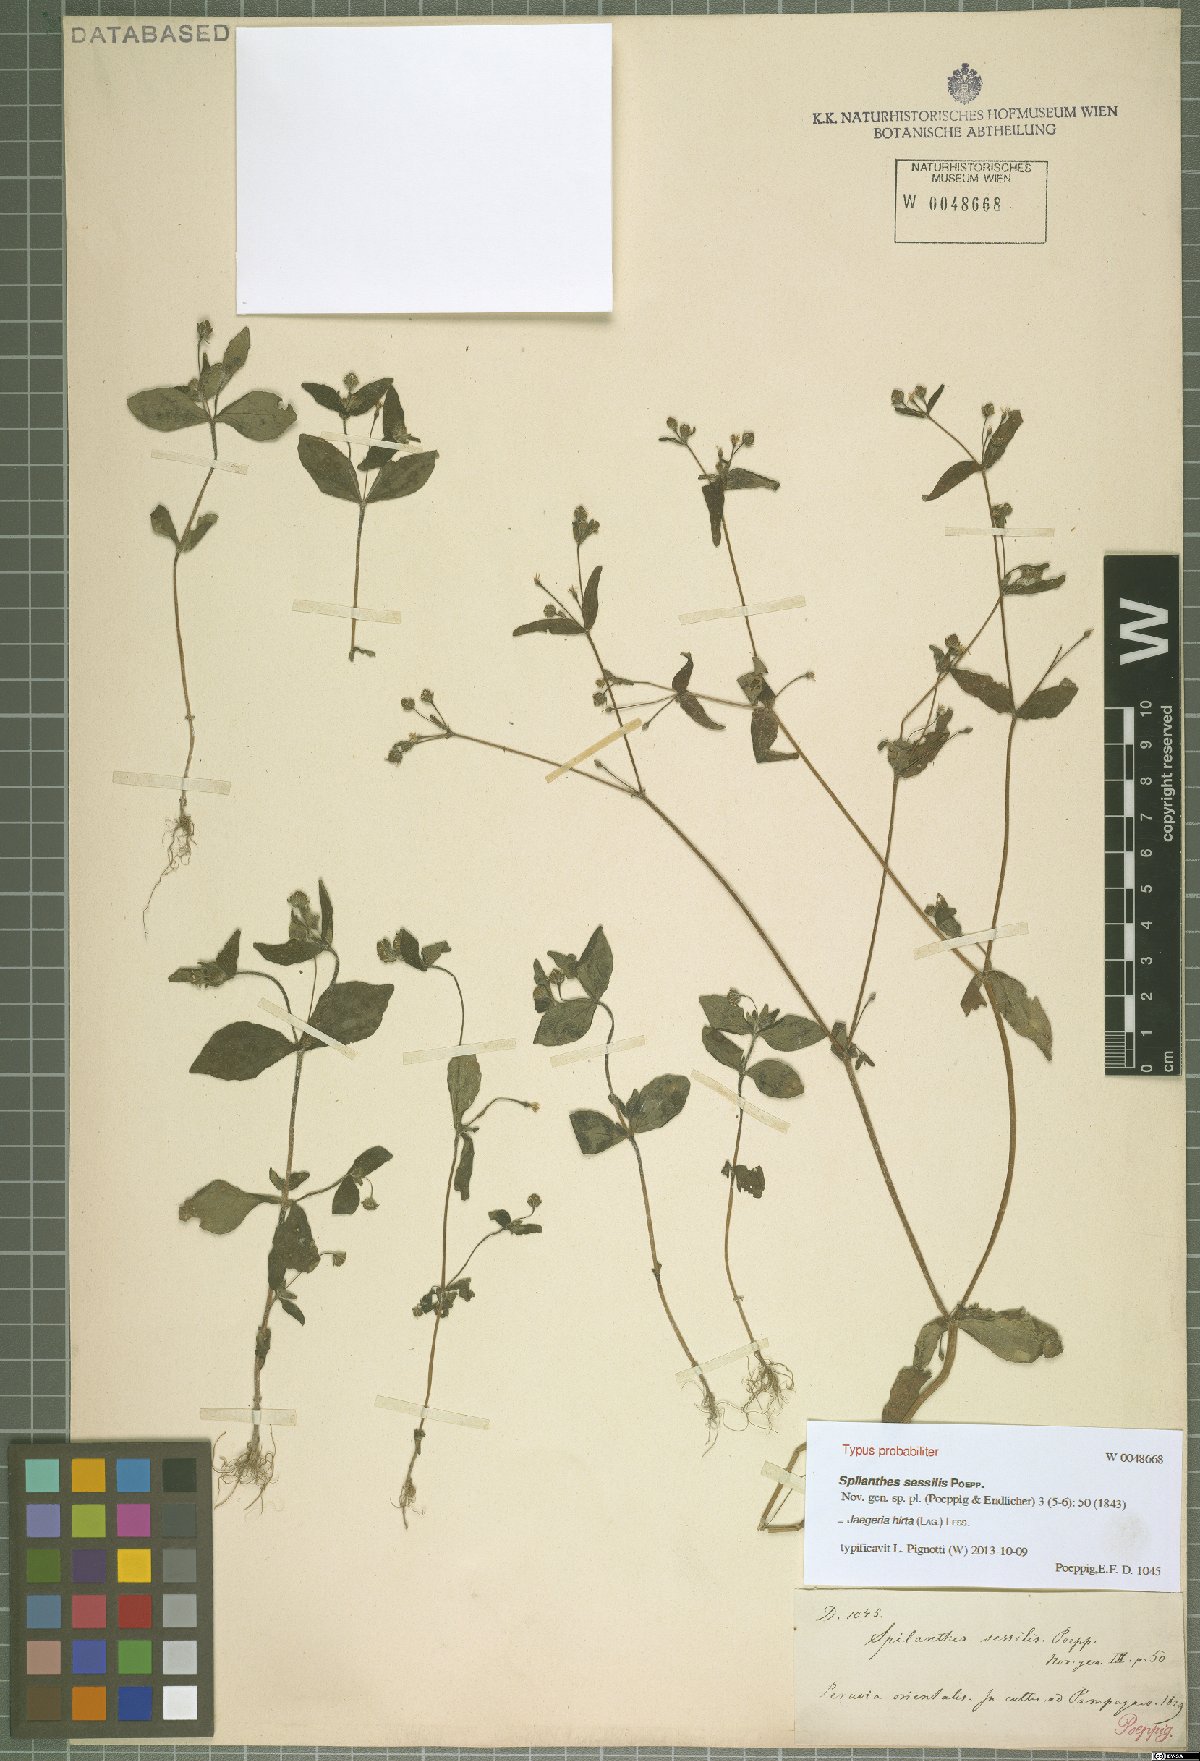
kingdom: Plantae
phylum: Tracheophyta
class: Magnoliopsida
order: Asterales
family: Asteraceae
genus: Jaegeria
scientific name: Jaegeria hirta
